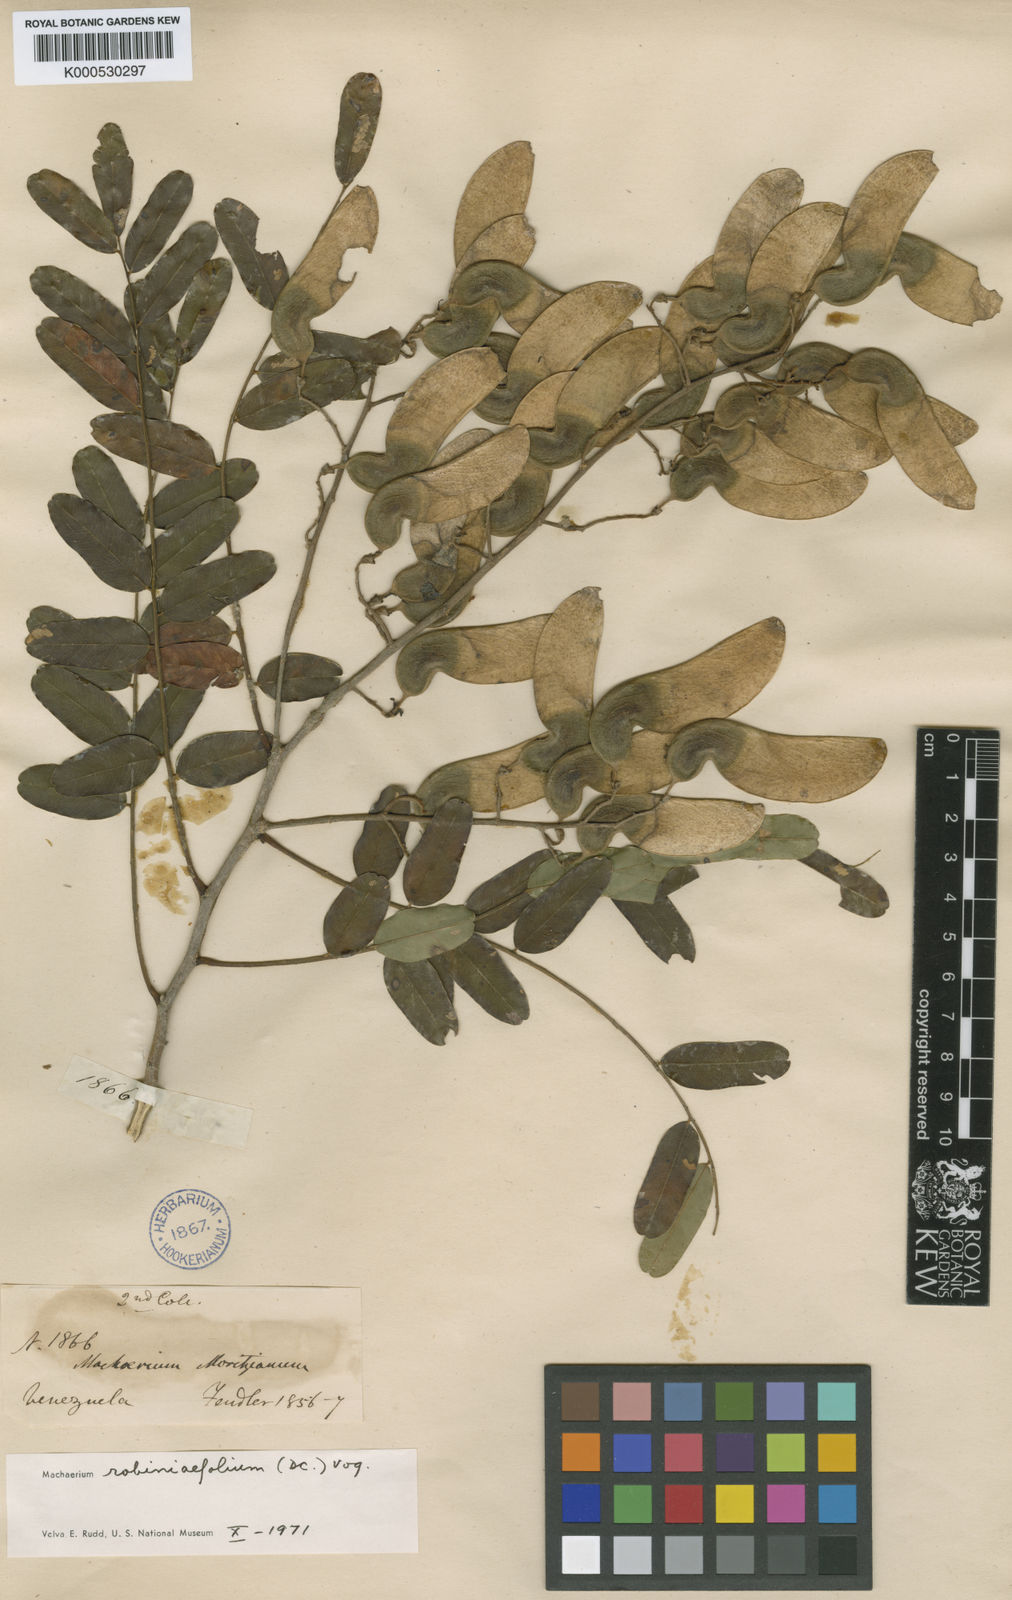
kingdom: Plantae
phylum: Tracheophyta
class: Magnoliopsida
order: Fabales
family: Fabaceae
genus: Machaerium
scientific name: Machaerium robiniifolium
